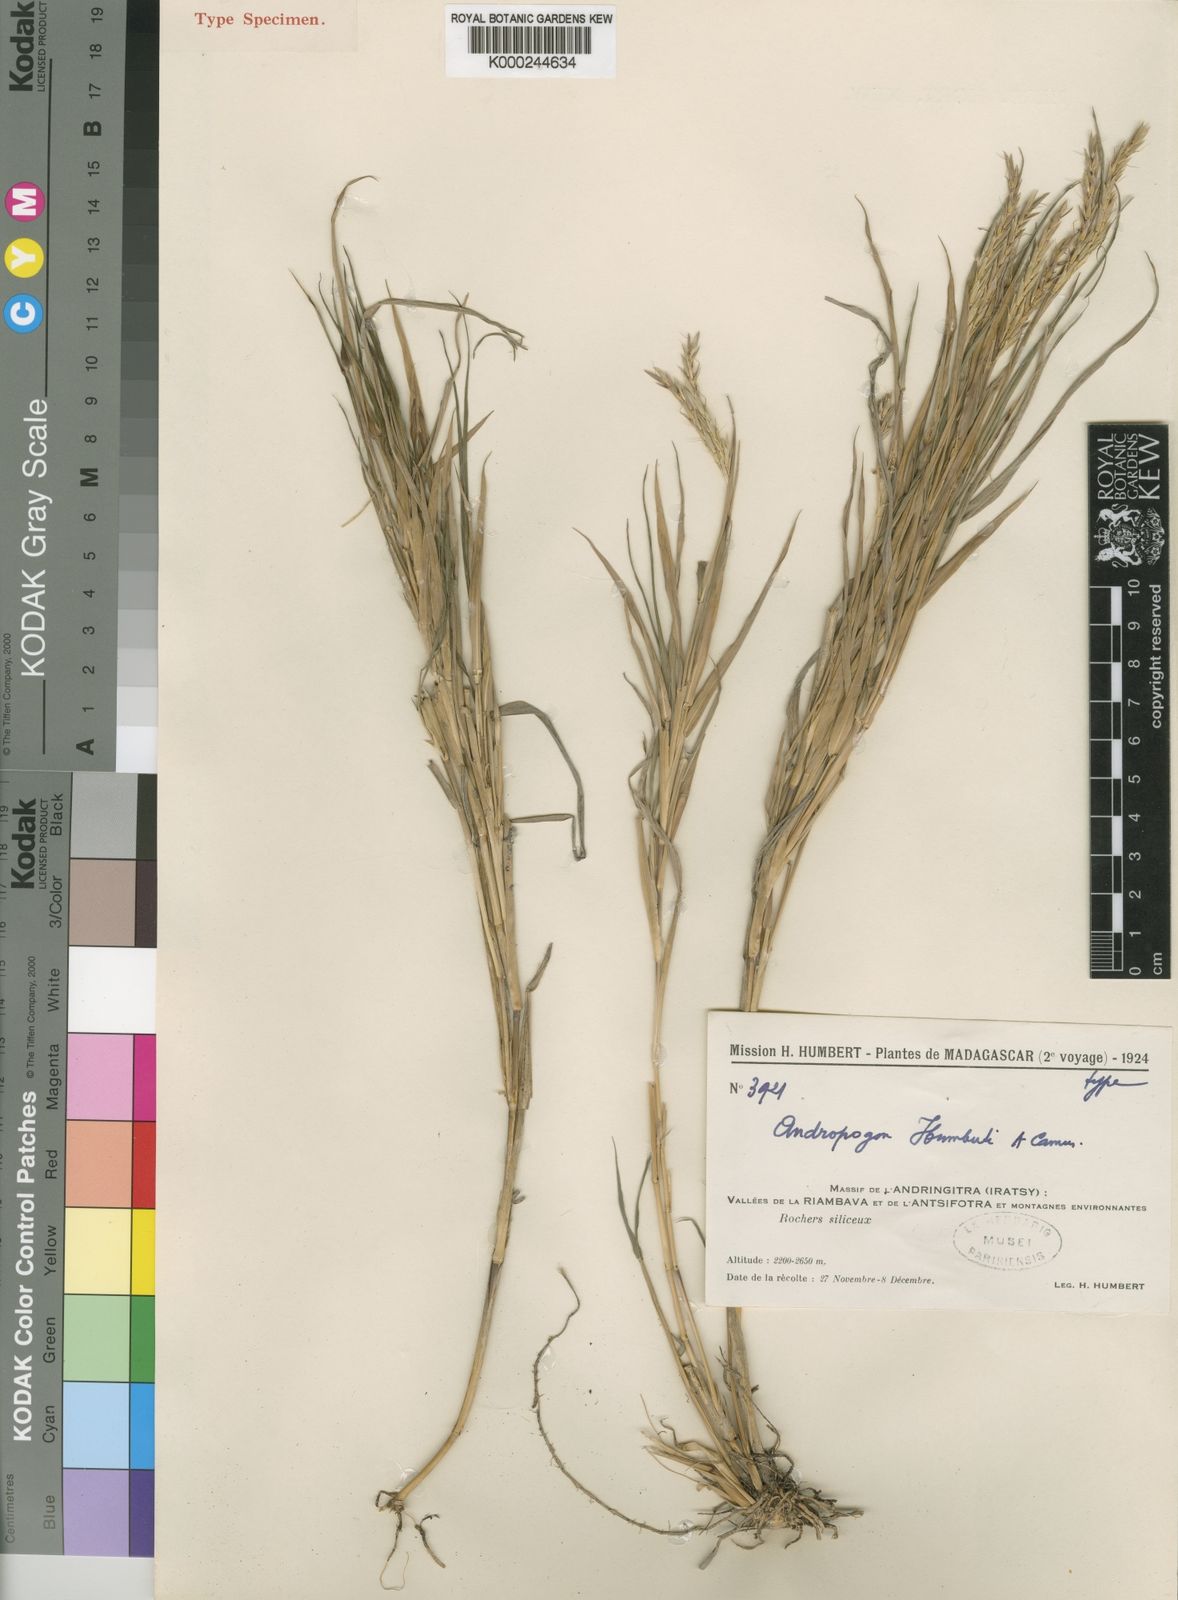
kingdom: Plantae
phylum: Tracheophyta
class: Liliopsida
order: Poales
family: Poaceae
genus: Andropogon
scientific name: Andropogon andringitrensis
